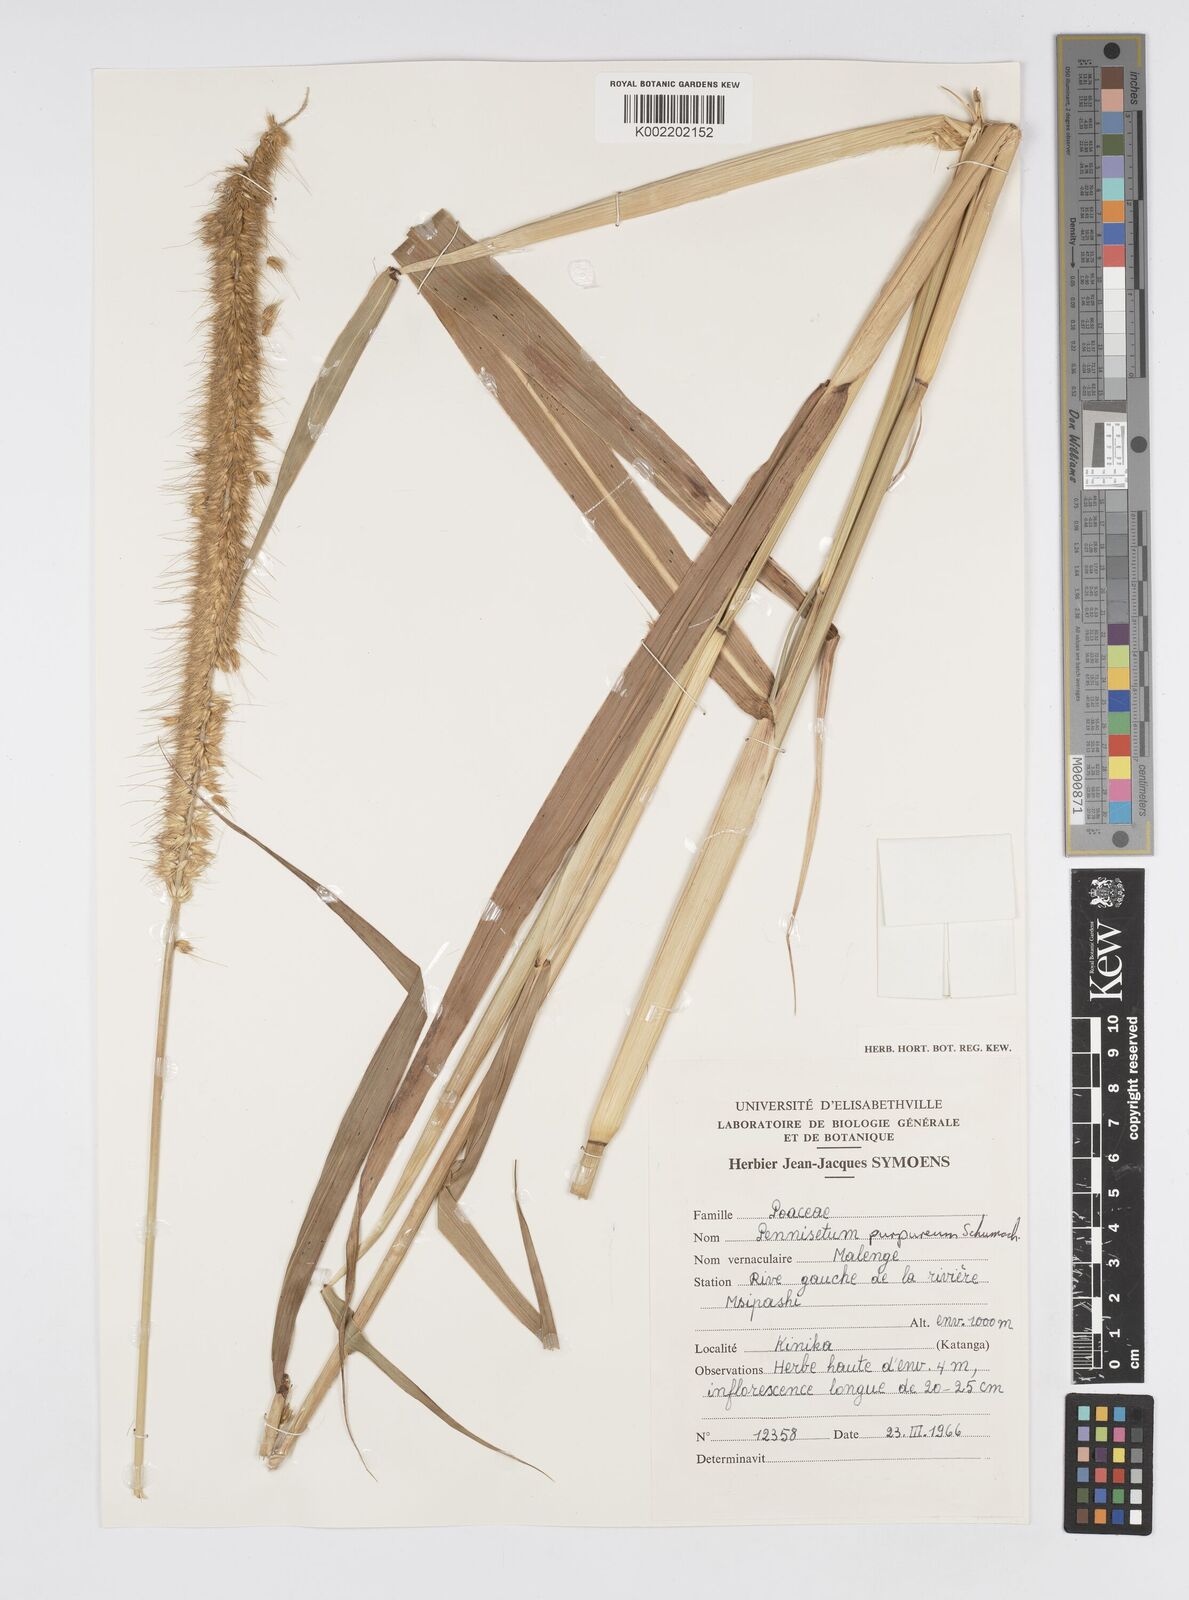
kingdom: Plantae
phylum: Tracheophyta
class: Liliopsida
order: Poales
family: Poaceae
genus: Cenchrus
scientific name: Cenchrus purpureus
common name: Elephant grass
